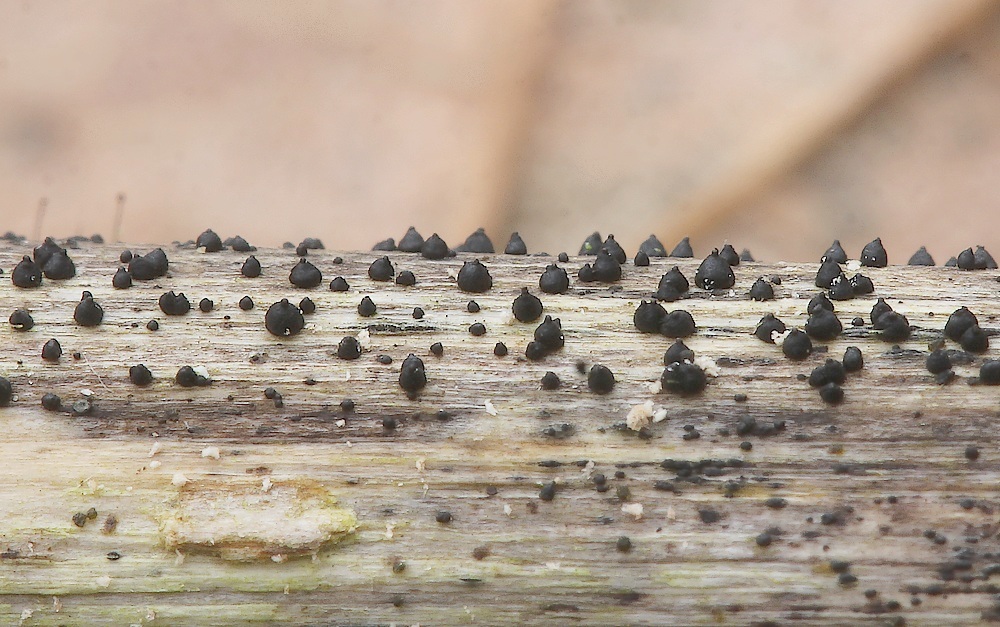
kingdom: Fungi
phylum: Ascomycota
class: Dothideomycetes
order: Pleosporales
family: Leptosphaeriaceae
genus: Leptosphaeria
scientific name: Leptosphaeria acuta
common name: spids kulkegle
